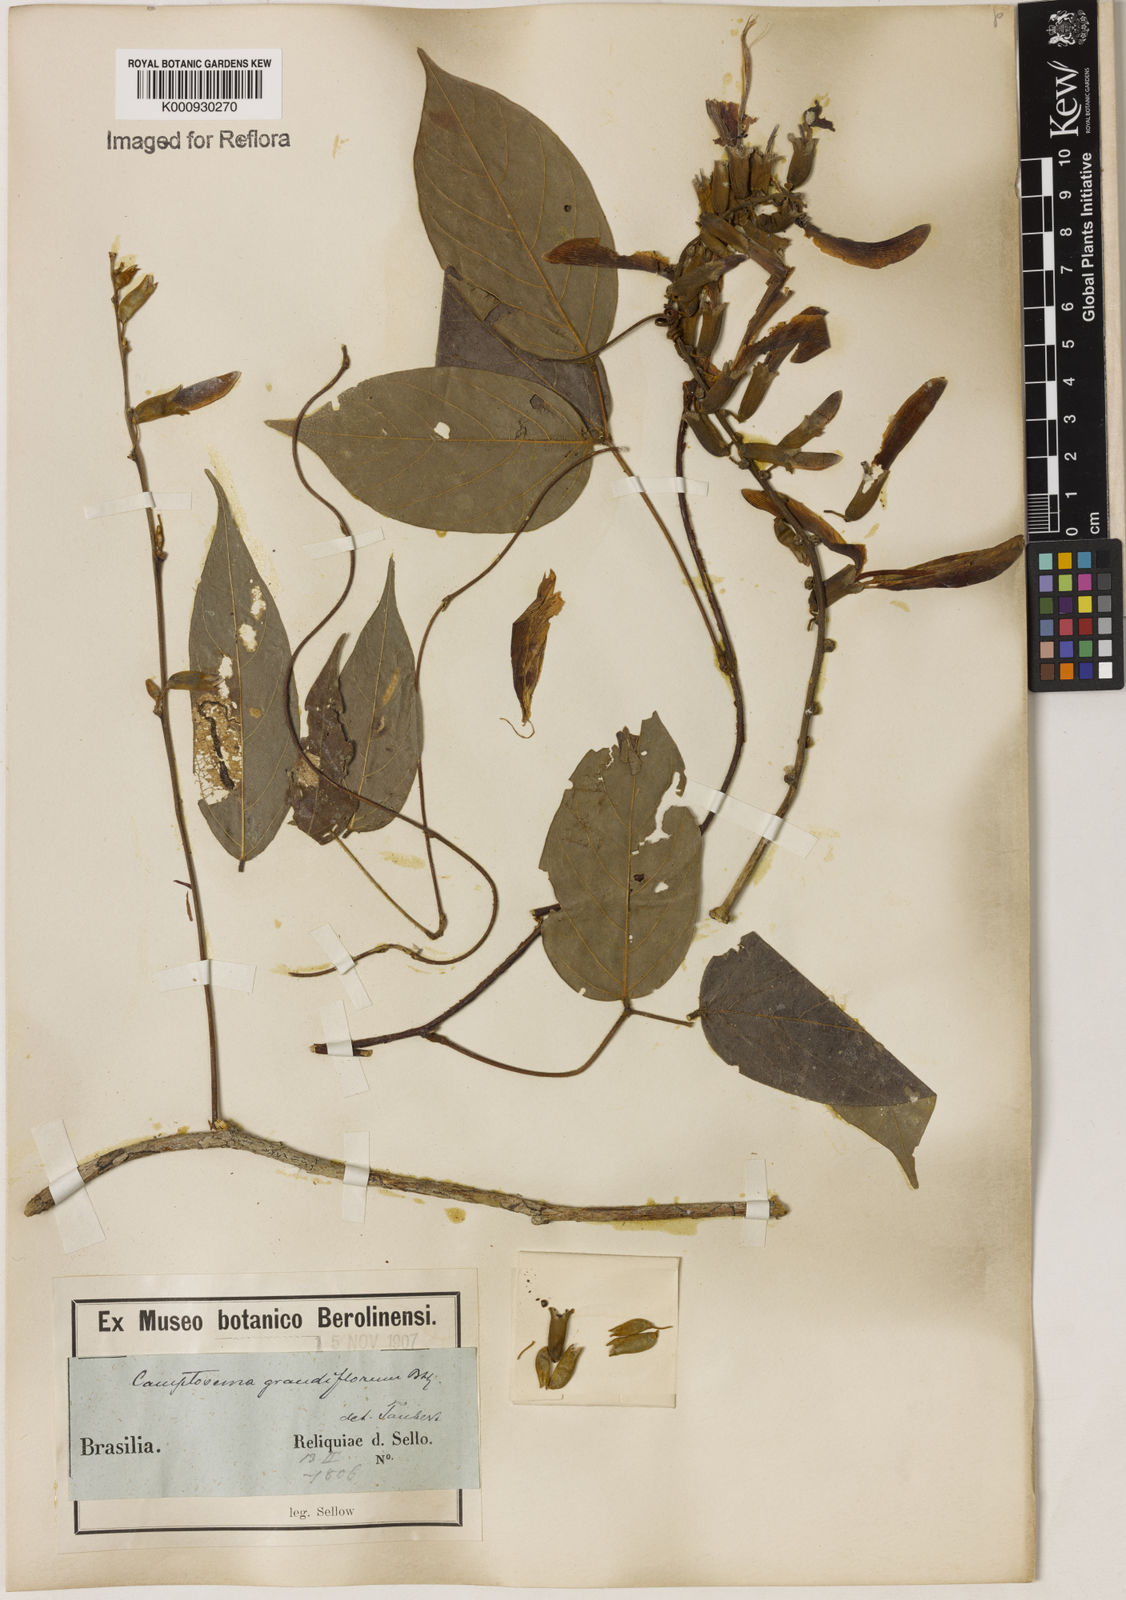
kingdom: Plantae
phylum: Tracheophyta
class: Magnoliopsida
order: Fabales
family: Fabaceae
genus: Camptosema
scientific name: Camptosema spectabile
